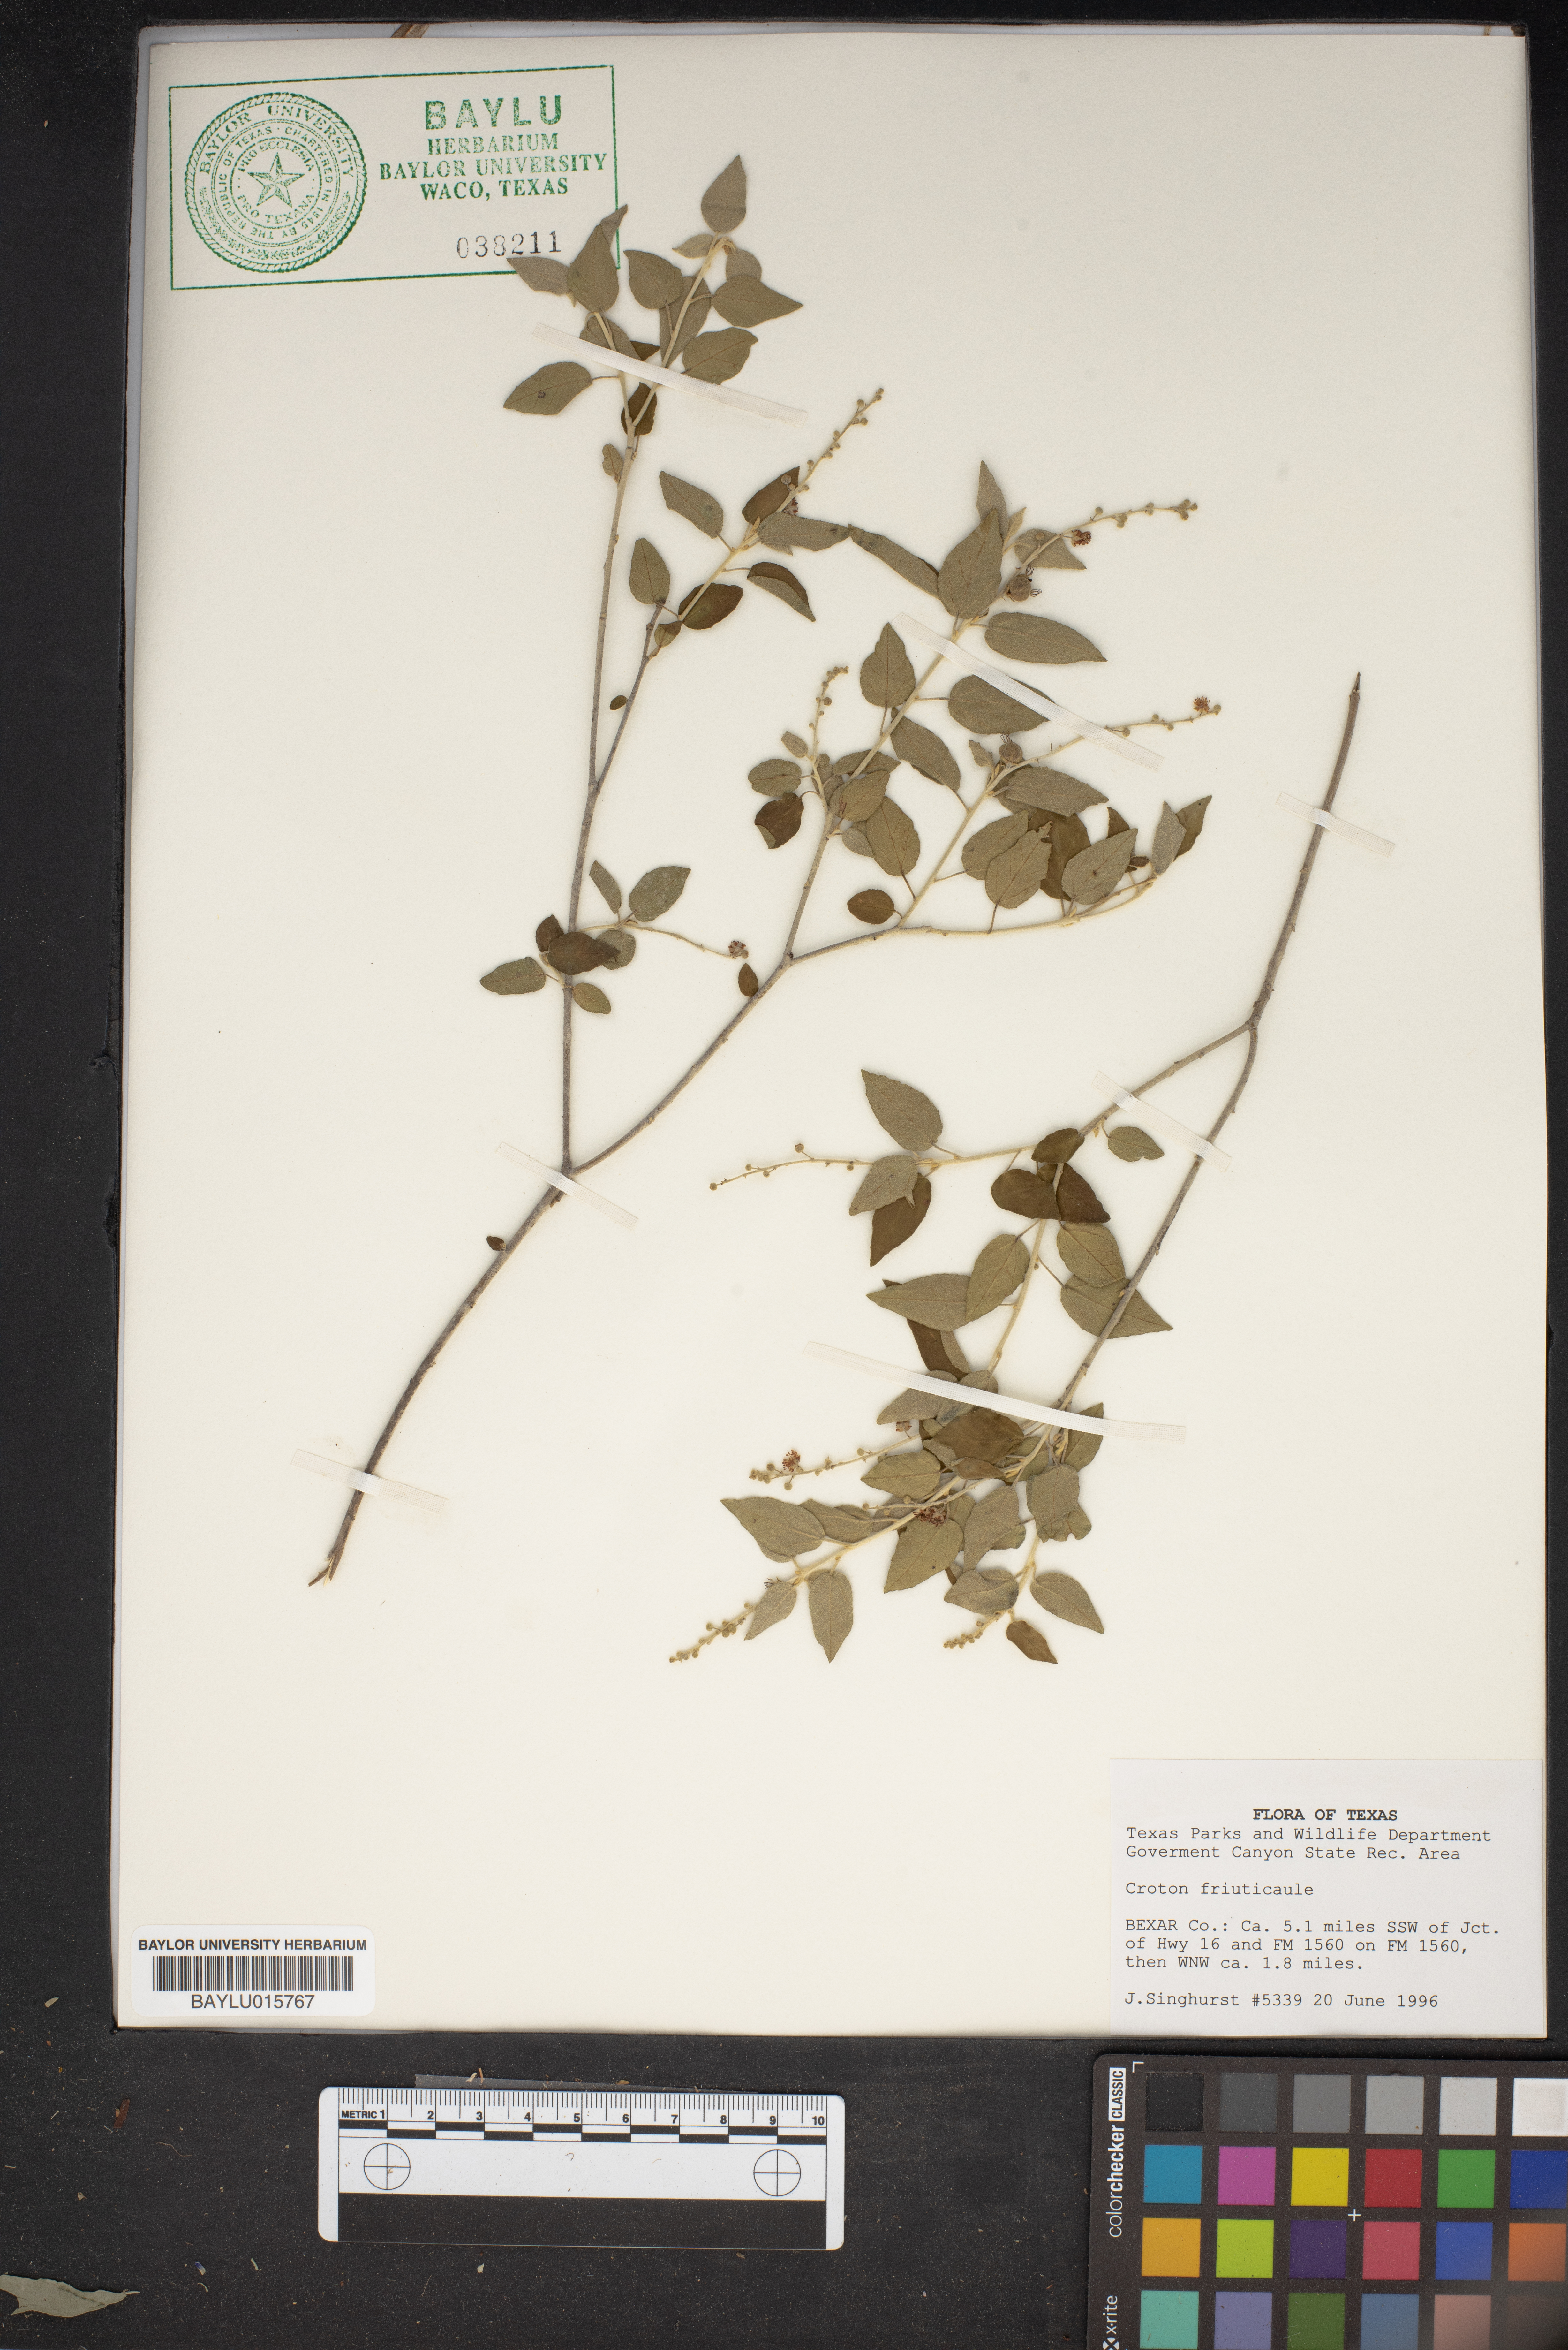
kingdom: Plantae
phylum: Tracheophyta
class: Magnoliopsida
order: Malpighiales
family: Euphorbiaceae
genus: Croton
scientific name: Croton
